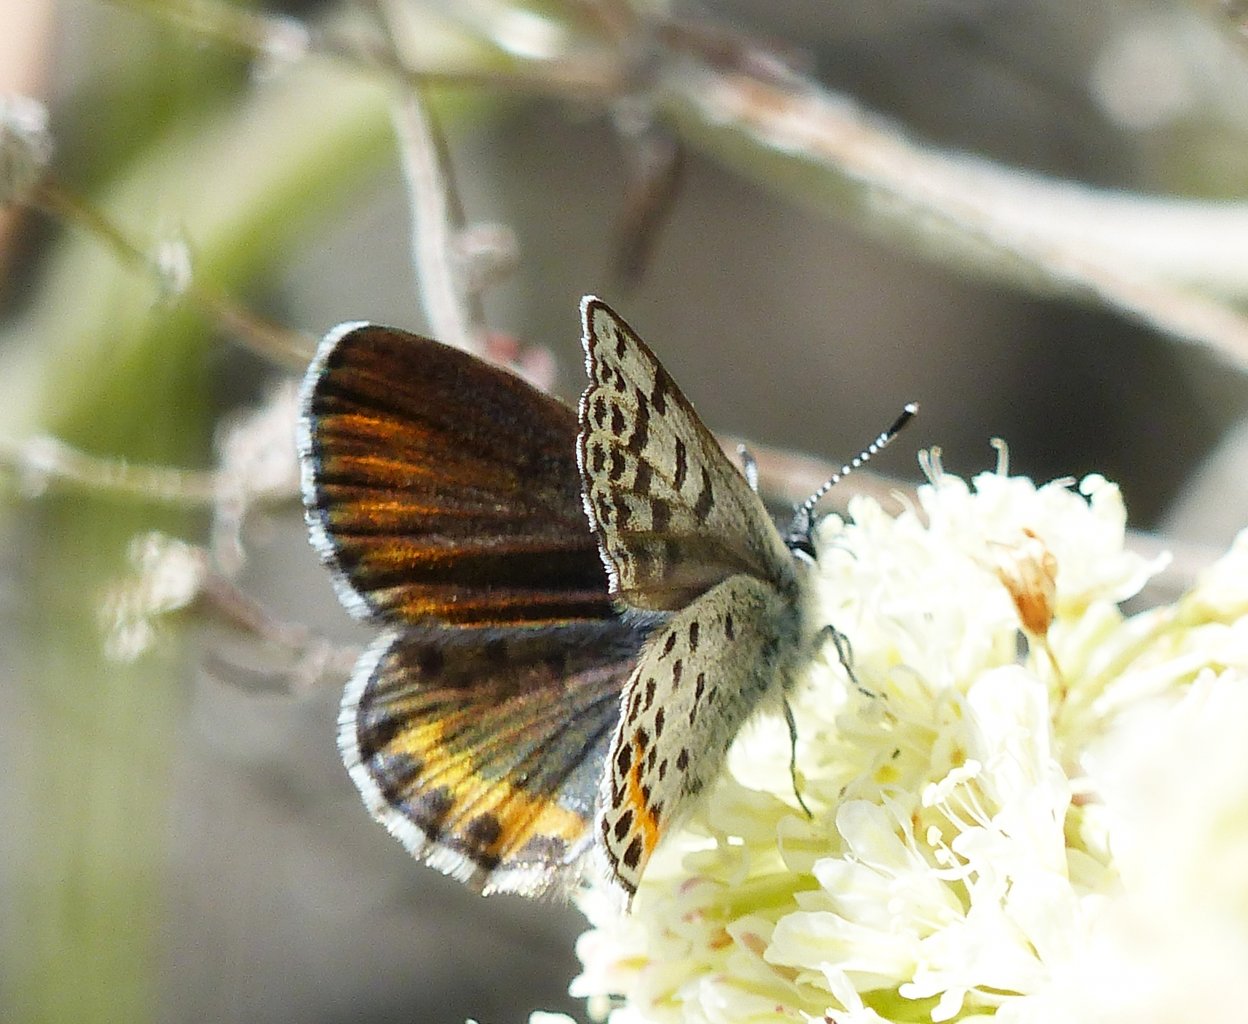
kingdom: Animalia
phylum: Arthropoda
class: Insecta
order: Lepidoptera
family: Lycaenidae
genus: Euphilotes
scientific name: Euphilotes battoides
